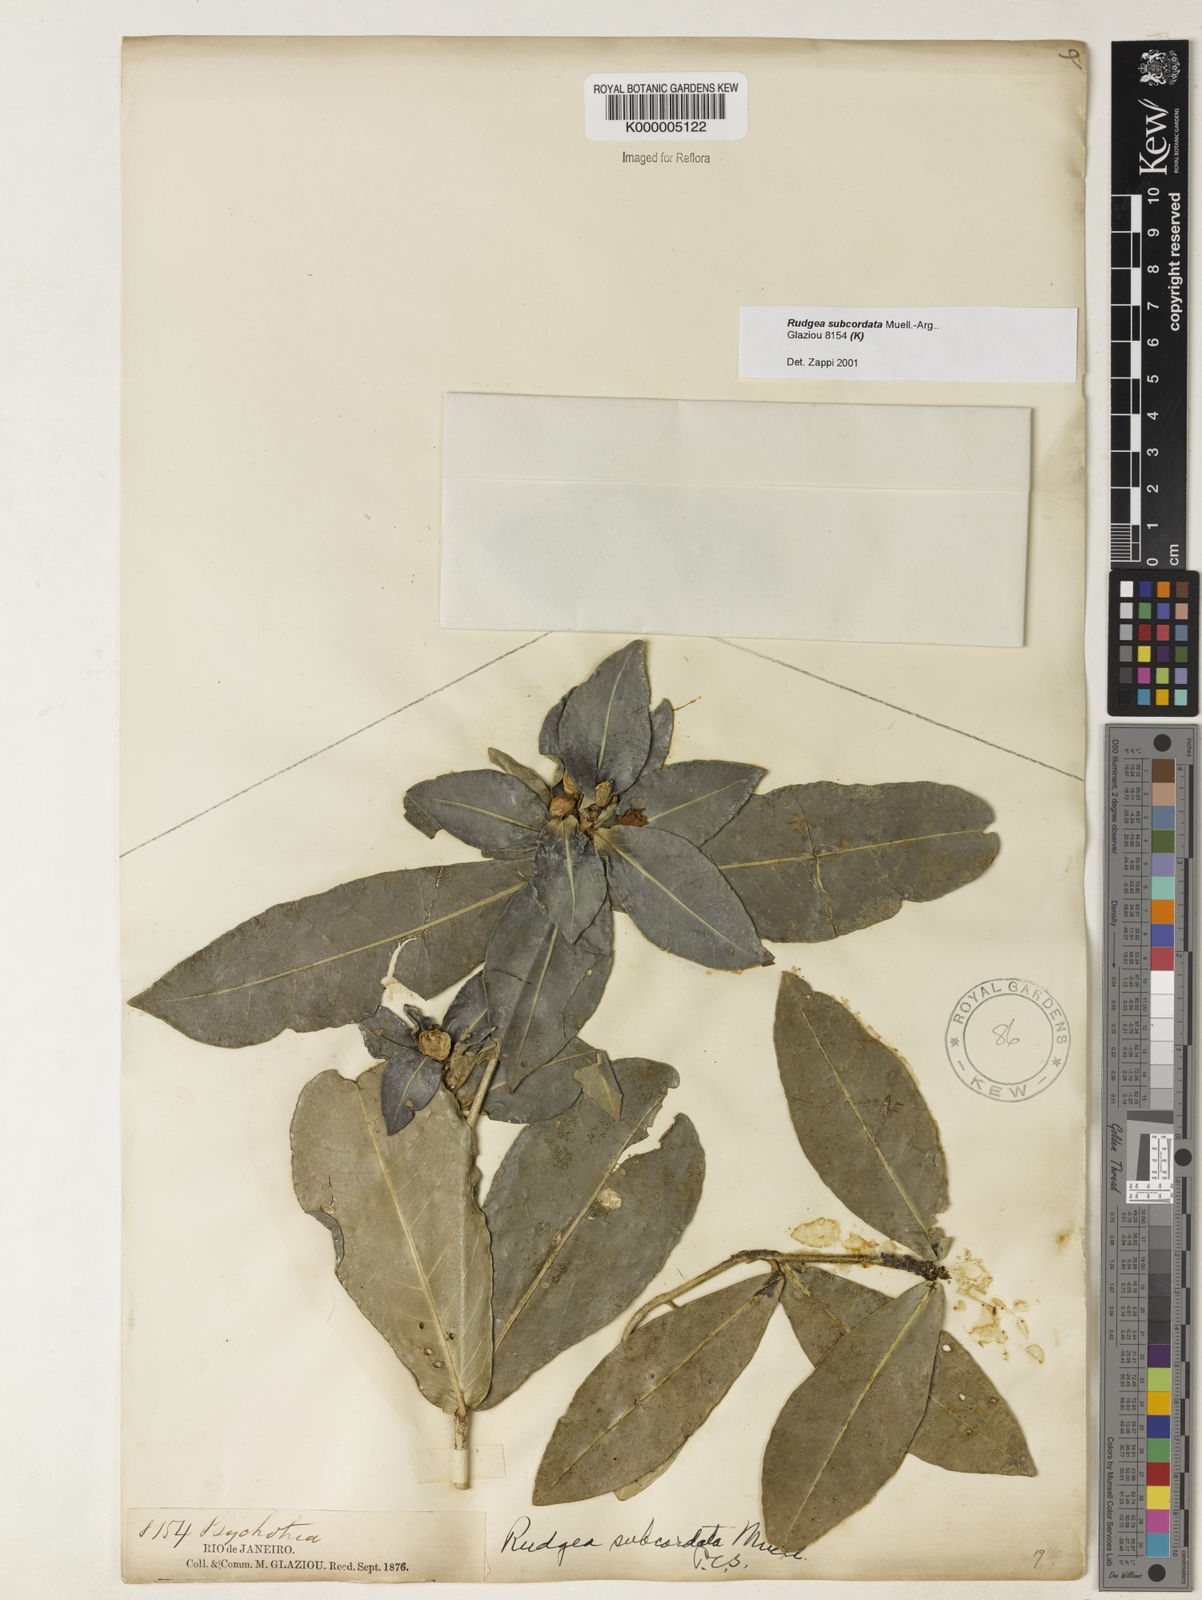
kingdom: Plantae
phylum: Tracheophyta
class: Magnoliopsida
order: Gentianales
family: Rubiaceae
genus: Rudgea
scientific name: Rudgea subcordata
